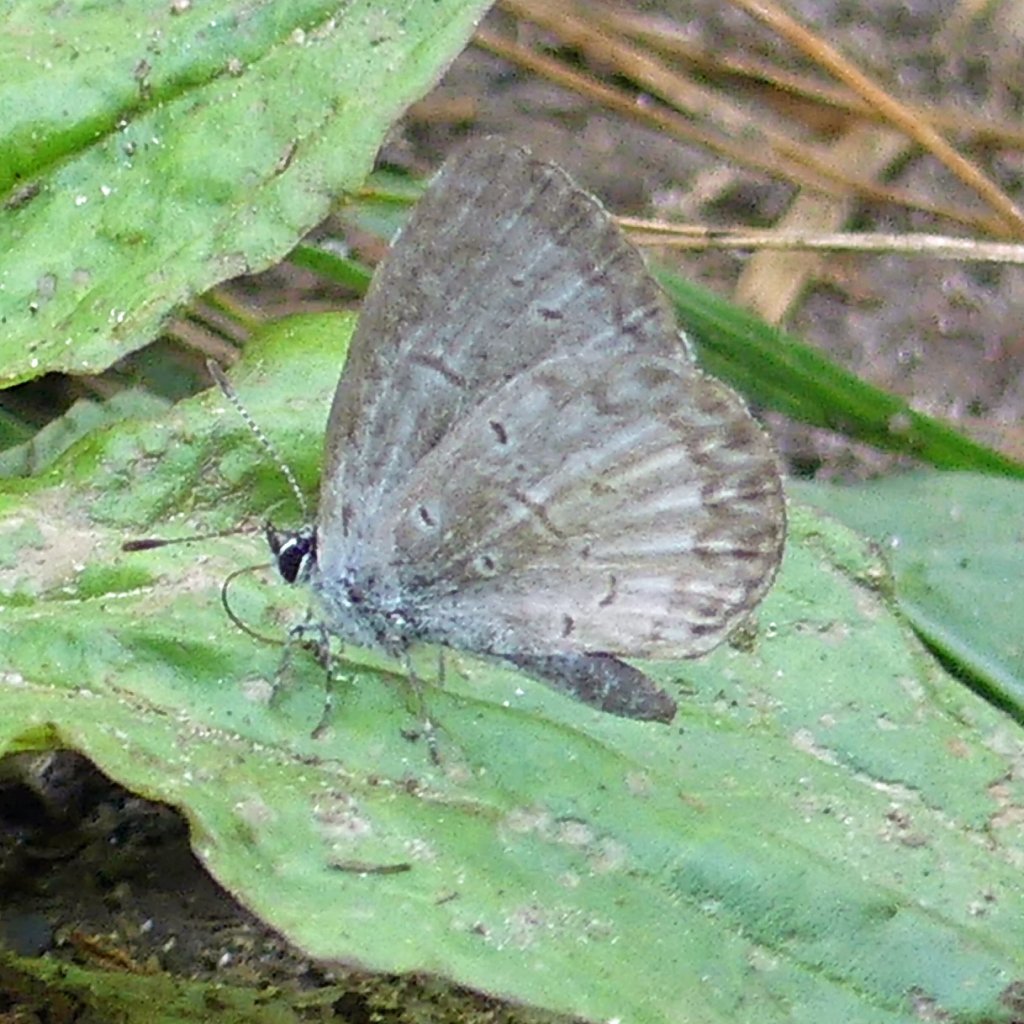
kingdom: Animalia
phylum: Arthropoda
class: Insecta
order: Lepidoptera
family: Lycaenidae
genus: Celastrina
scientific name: Celastrina
